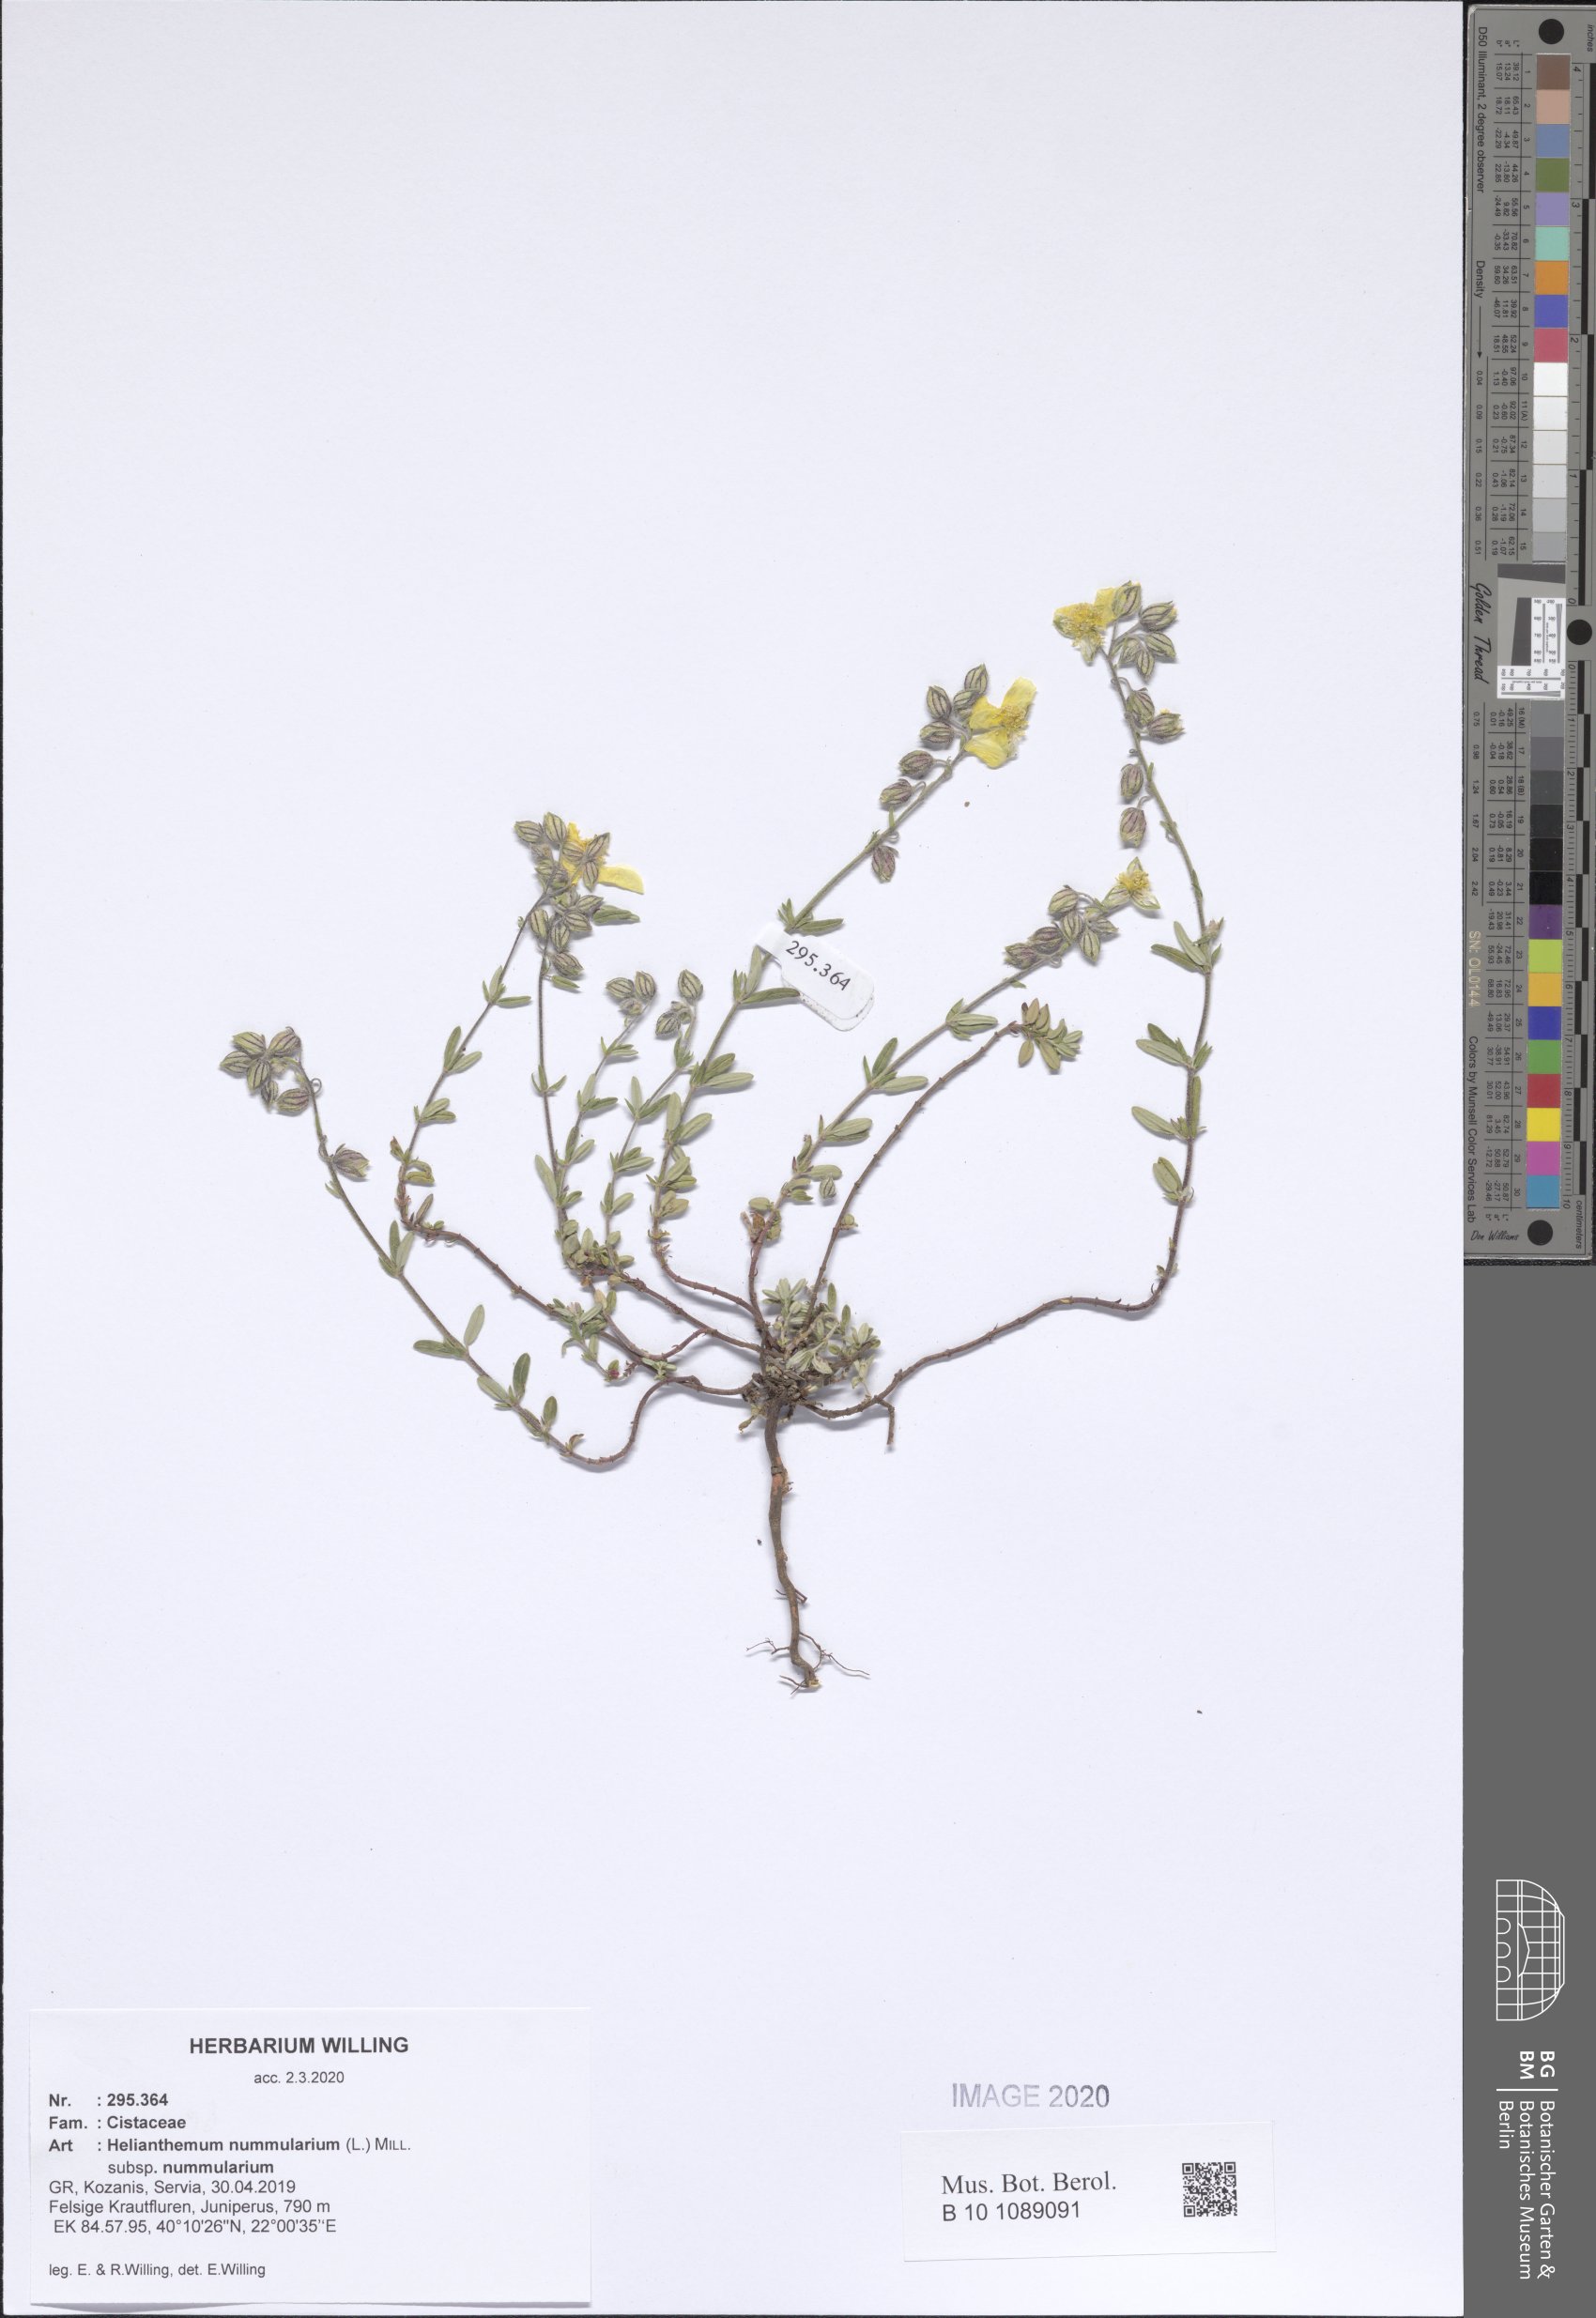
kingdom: Plantae
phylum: Tracheophyta
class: Magnoliopsida
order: Malvales
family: Cistaceae
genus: Helianthemum
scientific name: Helianthemum nummularium
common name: Common rock-rose
